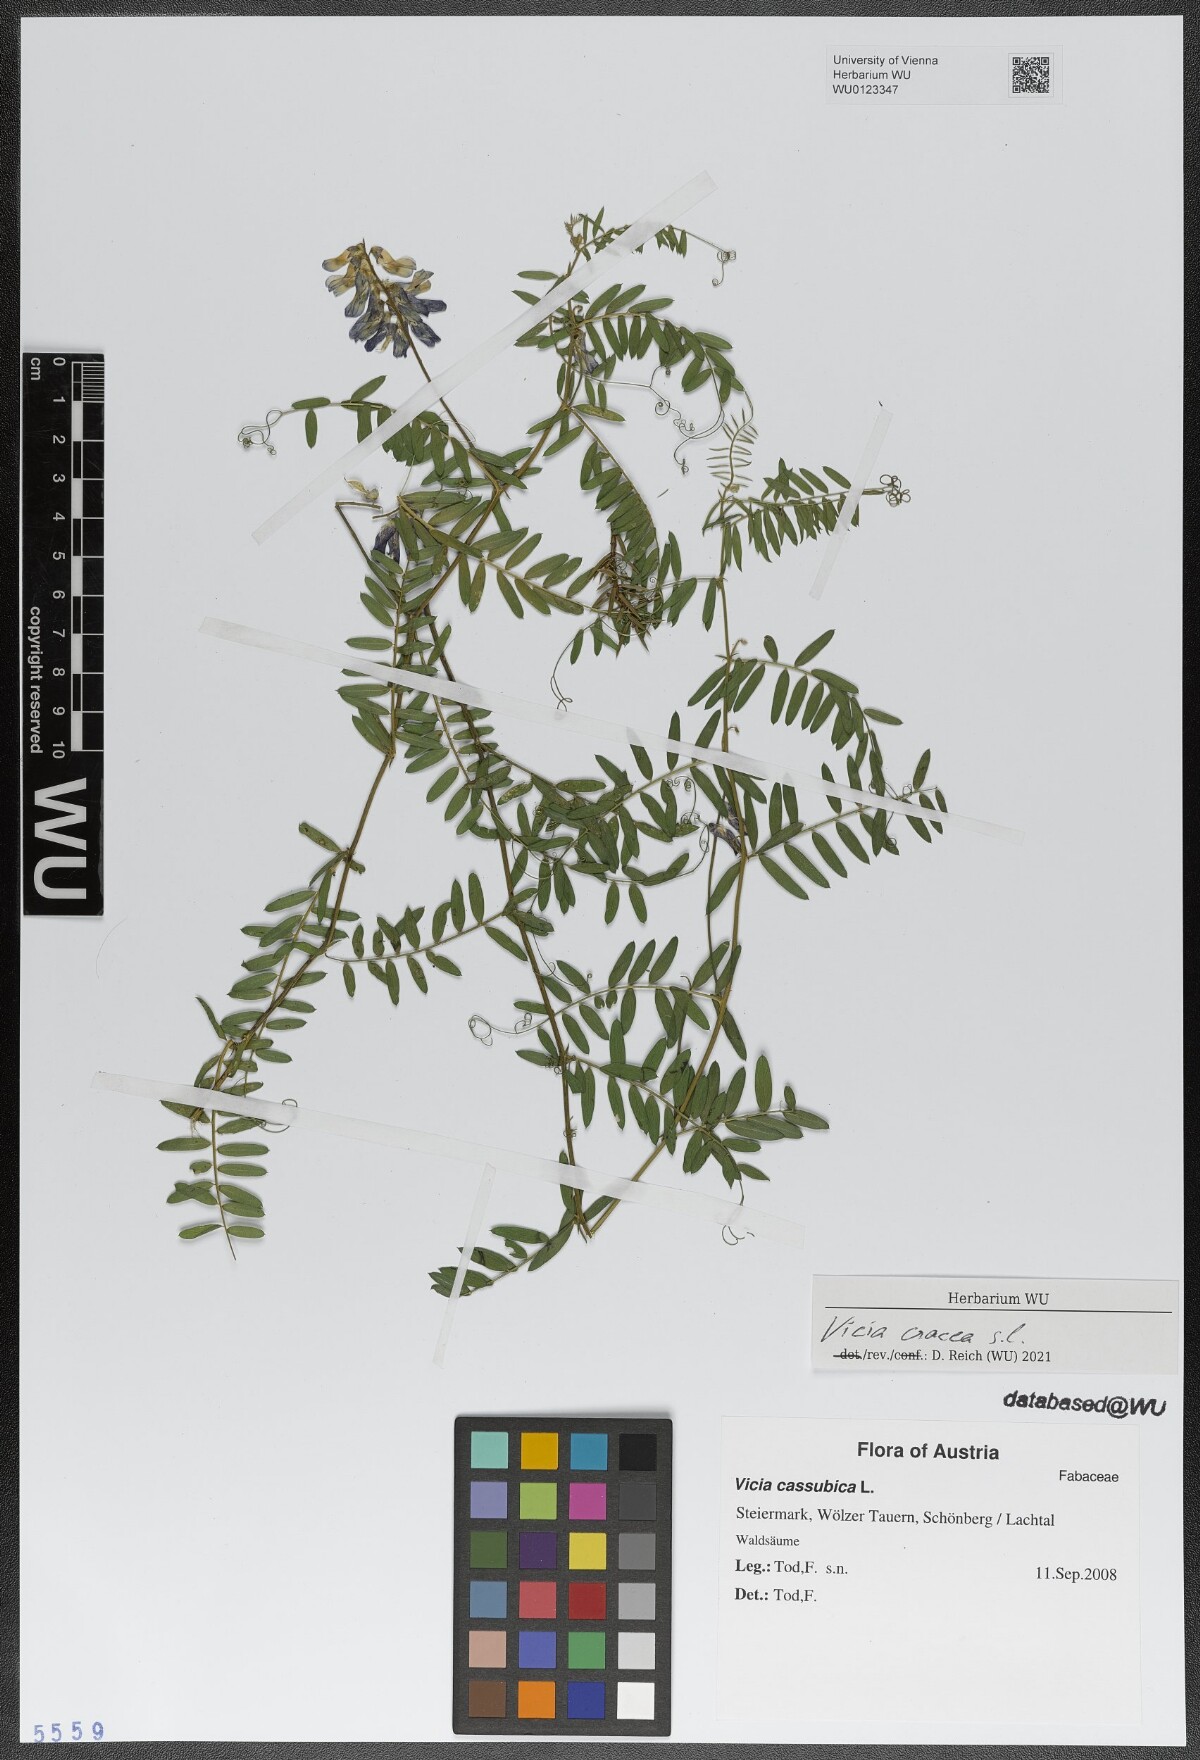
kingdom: Plantae
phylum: Tracheophyta
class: Magnoliopsida
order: Fabales
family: Fabaceae
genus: Vicia
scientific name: Vicia cracca
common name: Bird vetch
